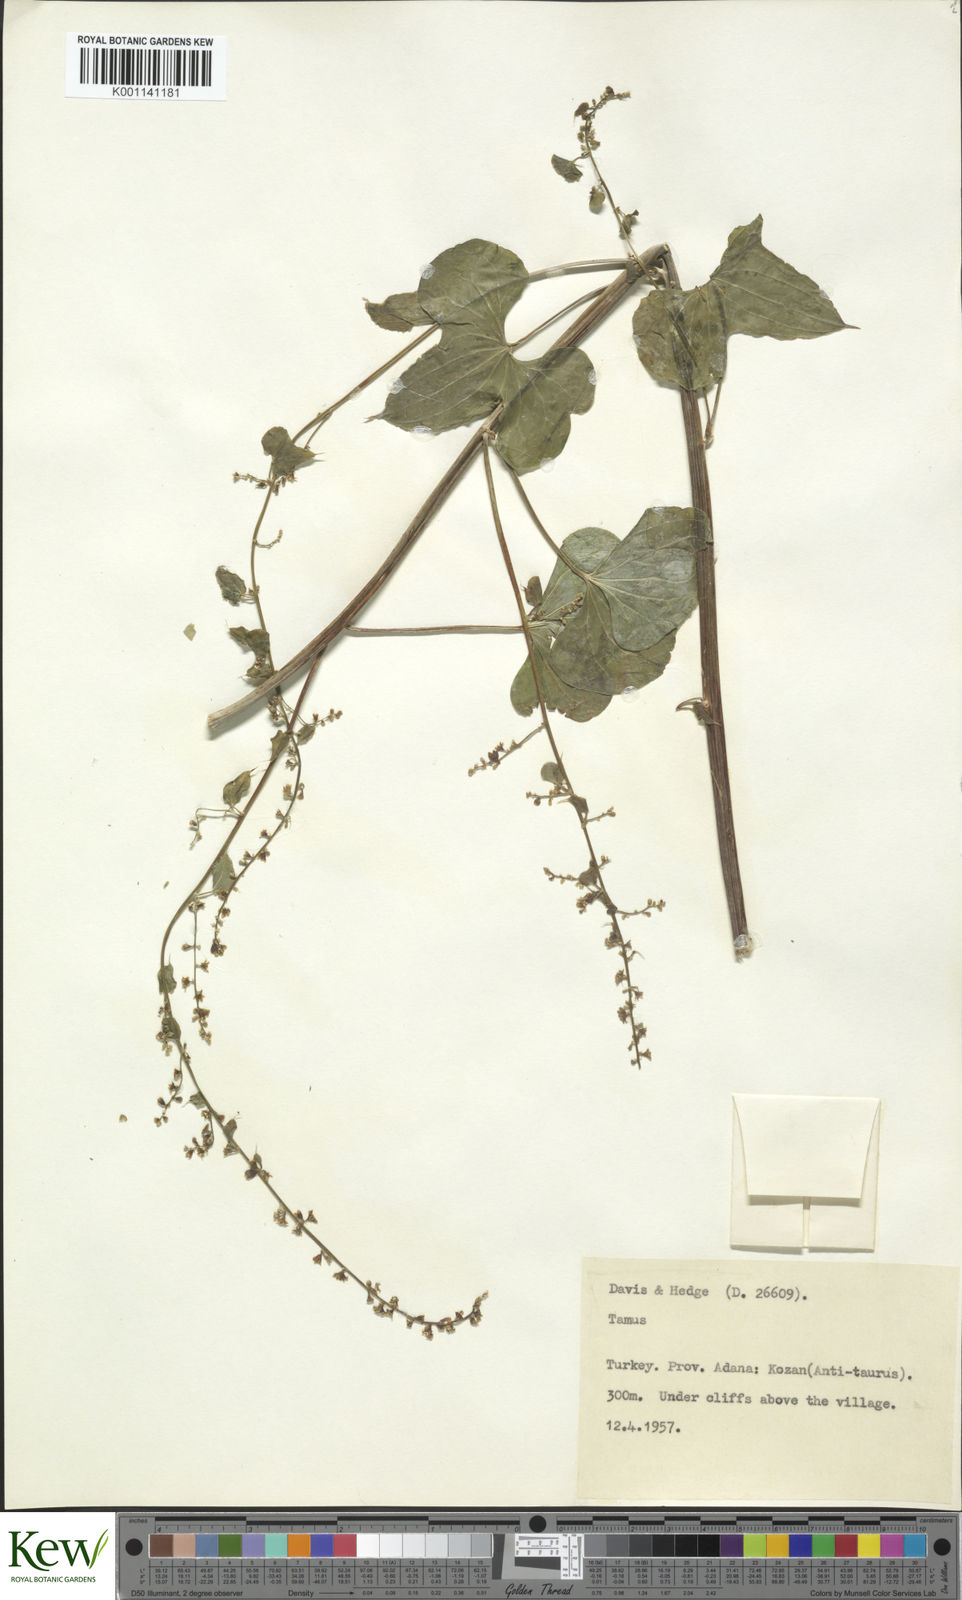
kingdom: Plantae
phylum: Tracheophyta
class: Liliopsida
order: Dioscoreales
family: Dioscoreaceae
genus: Dioscorea
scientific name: Dioscorea communis
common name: Black-bindweed
